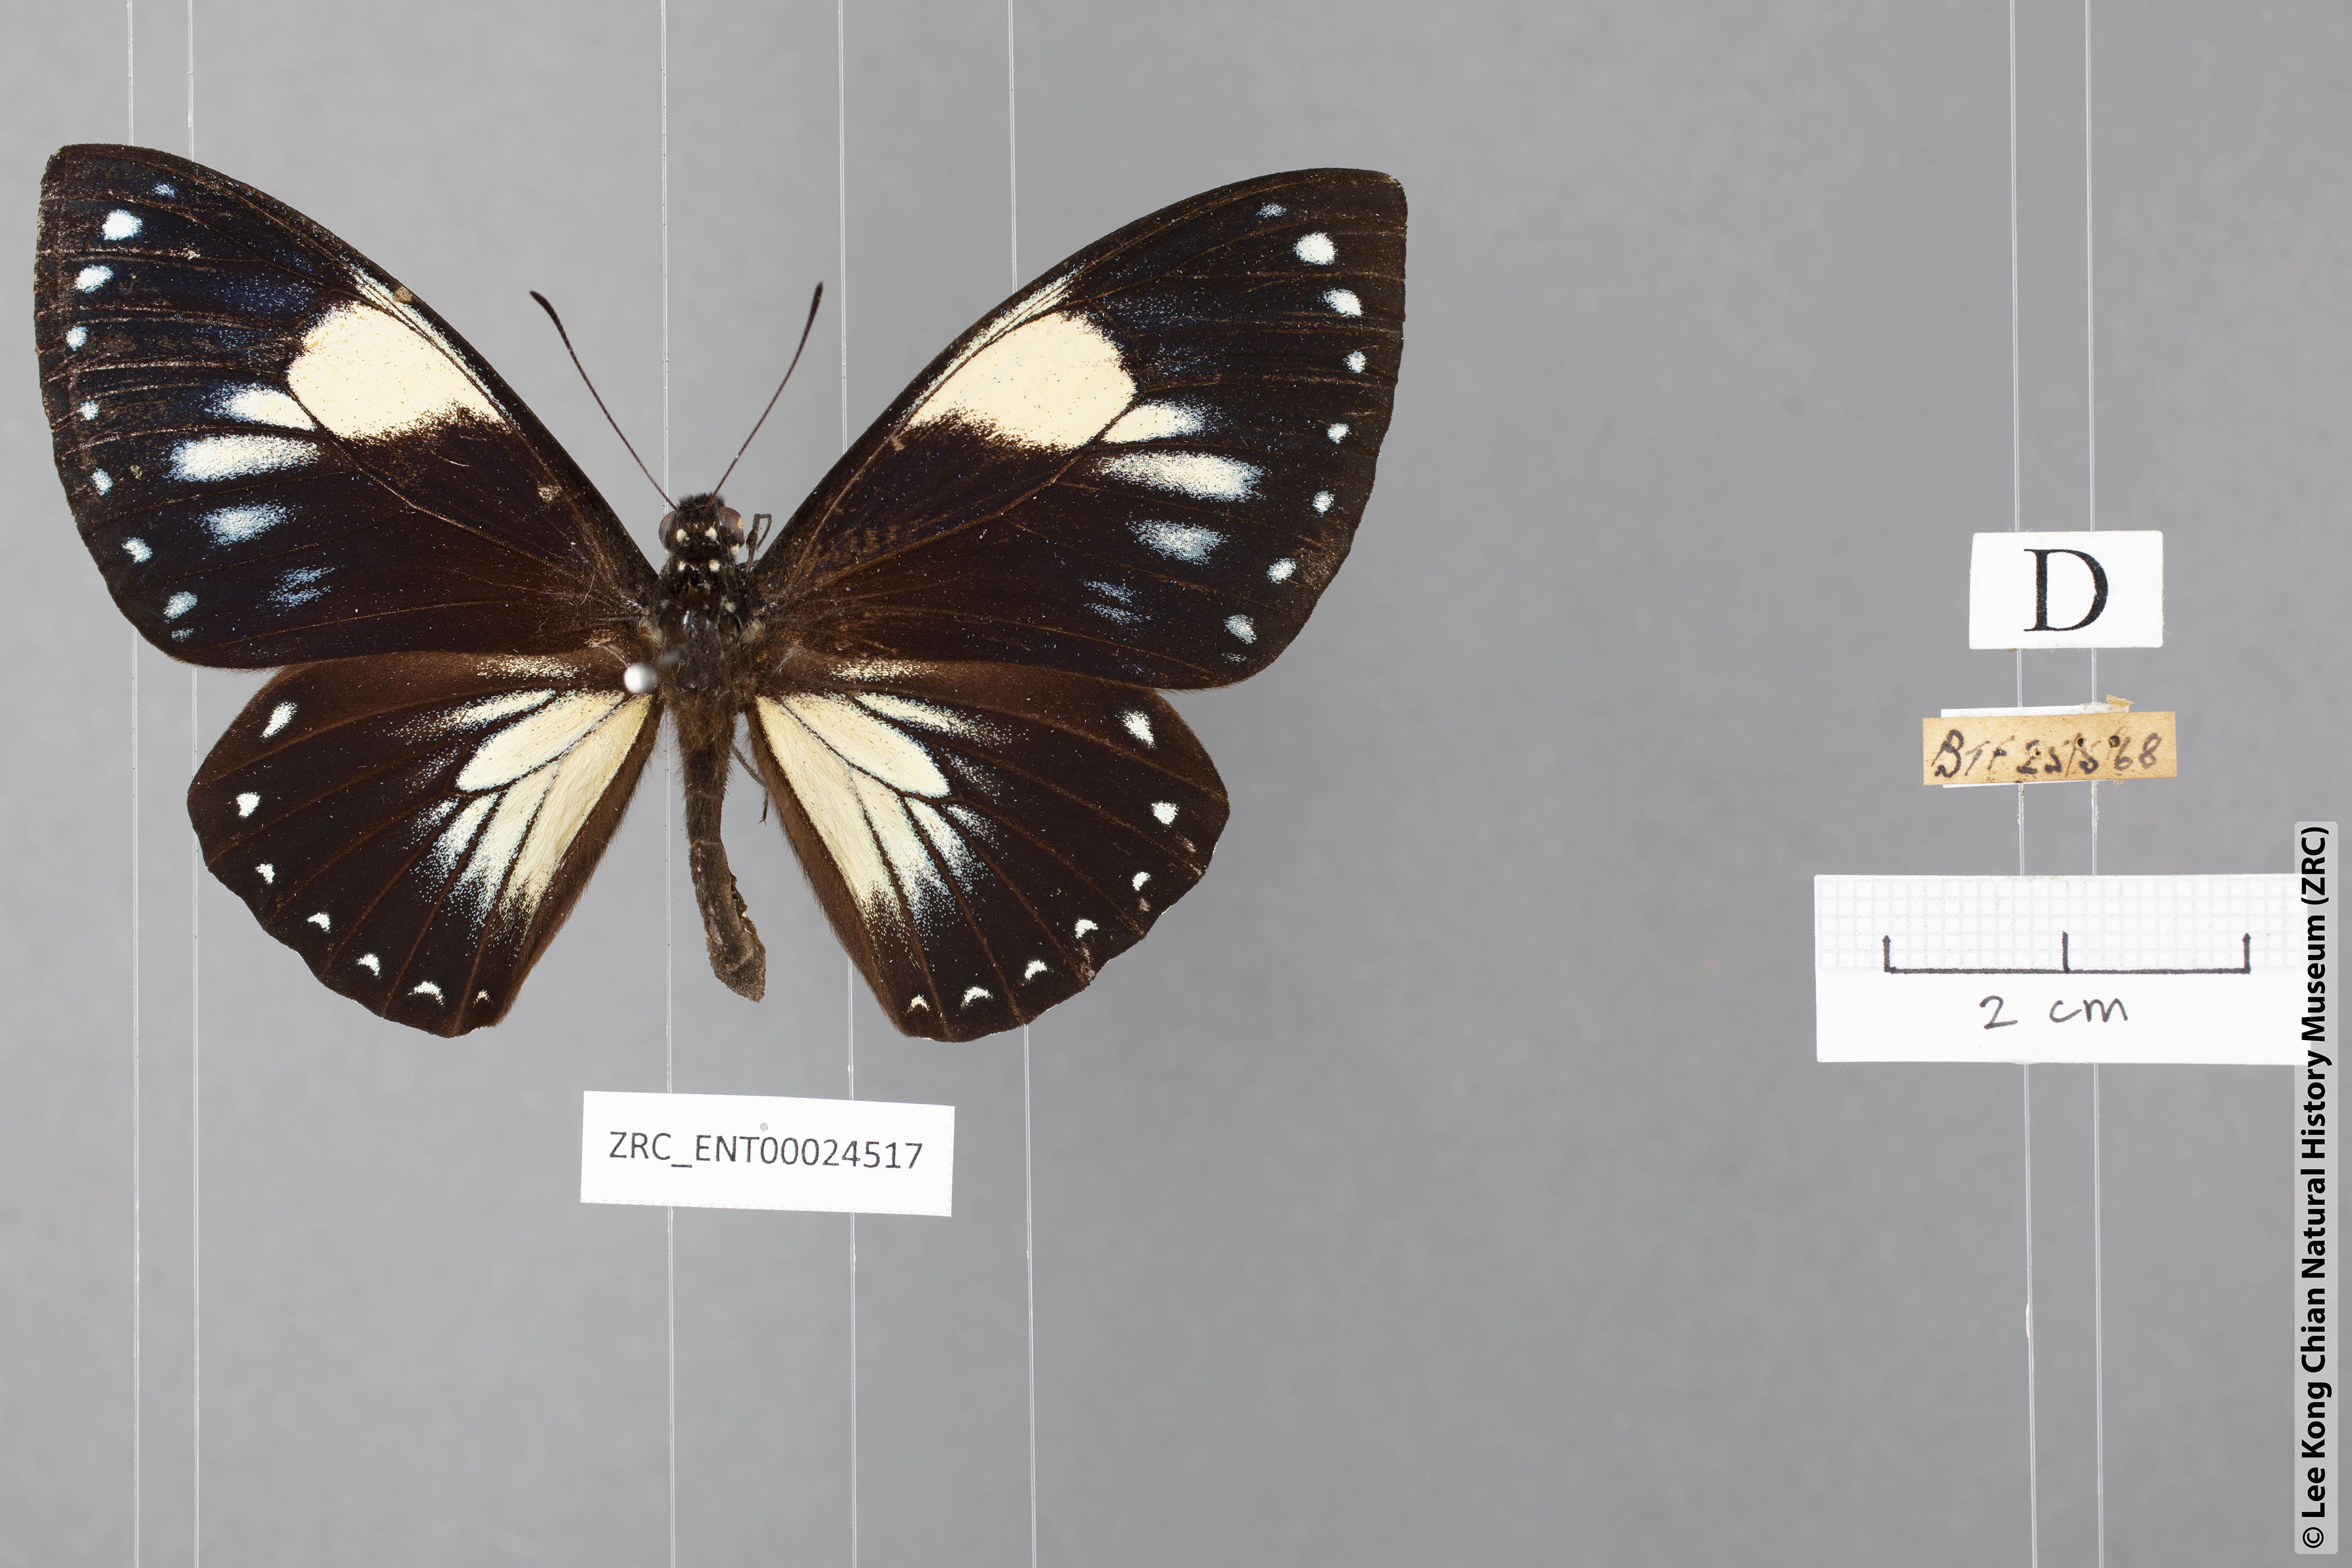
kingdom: Animalia
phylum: Arthropoda
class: Insecta
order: Lepidoptera
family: Papilionidae
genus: Chilasa
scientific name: Chilasa paradoxa
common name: Great mime
